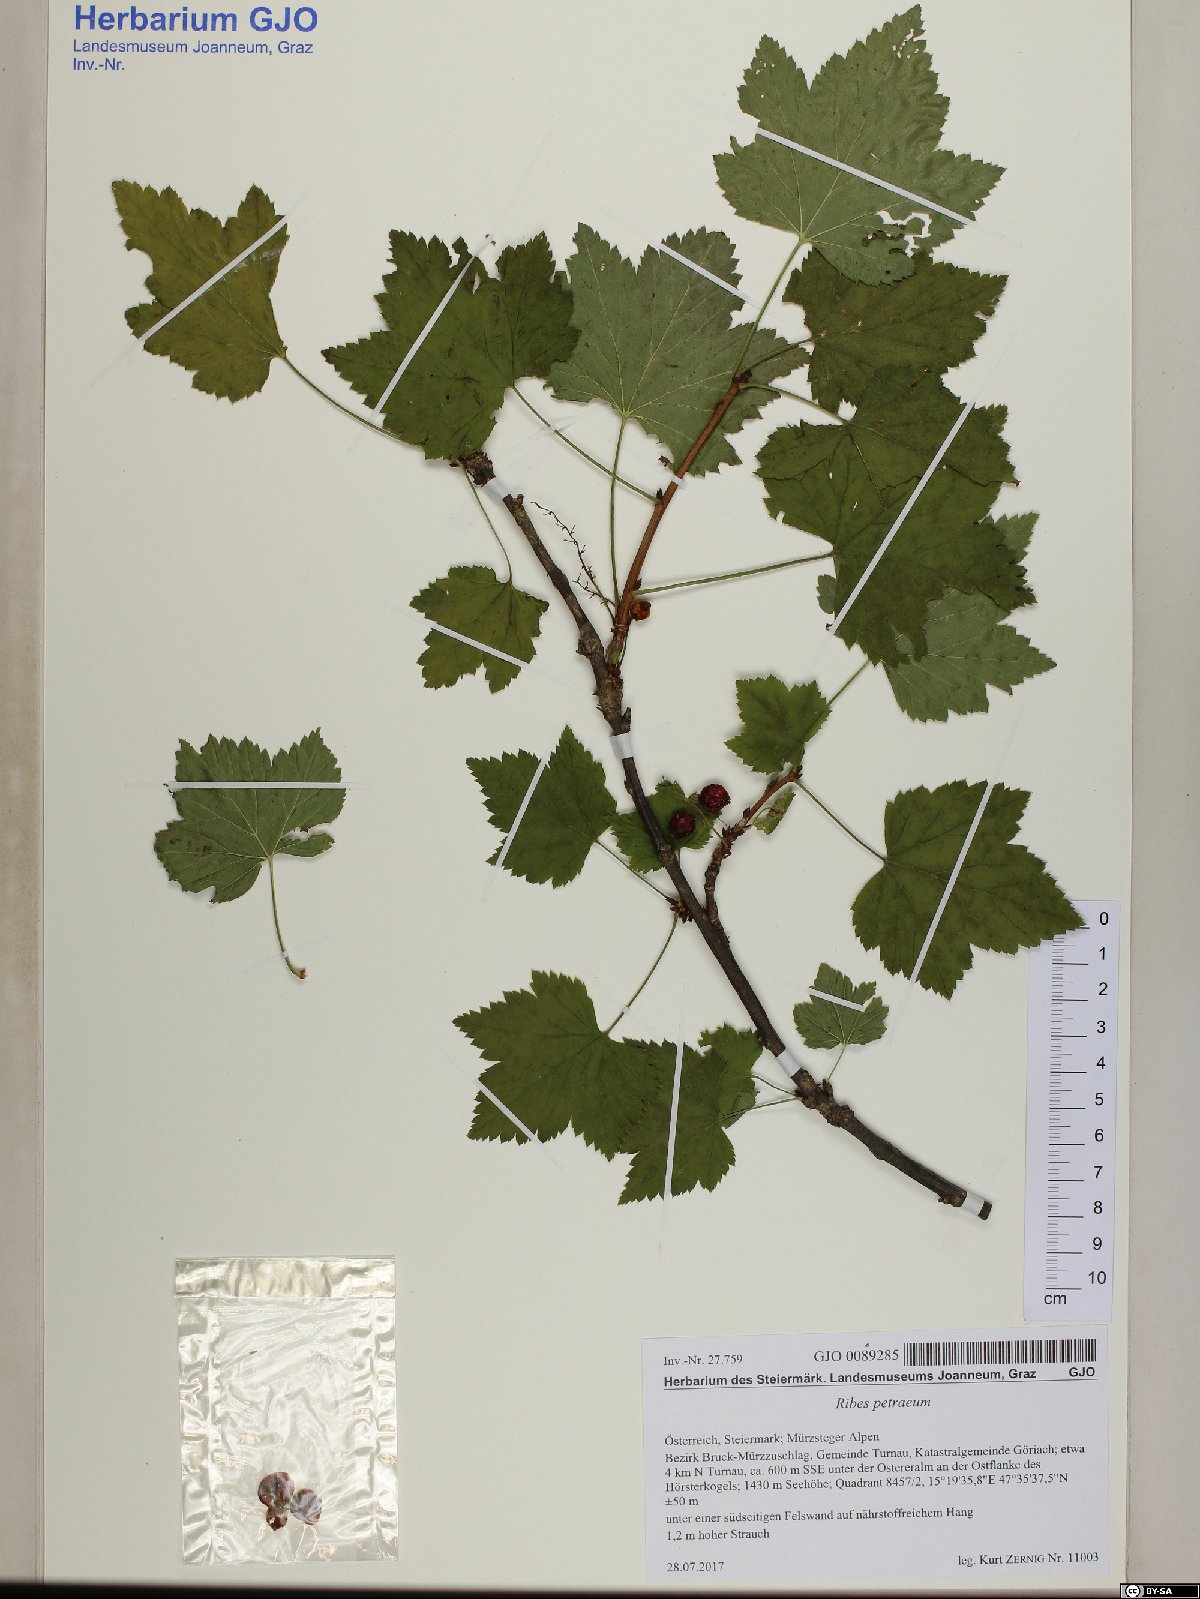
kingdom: Plantae
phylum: Tracheophyta
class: Magnoliopsida
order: Saxifragales
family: Grossulariaceae
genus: Ribes
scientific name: Ribes petraeum
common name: Rock currant
